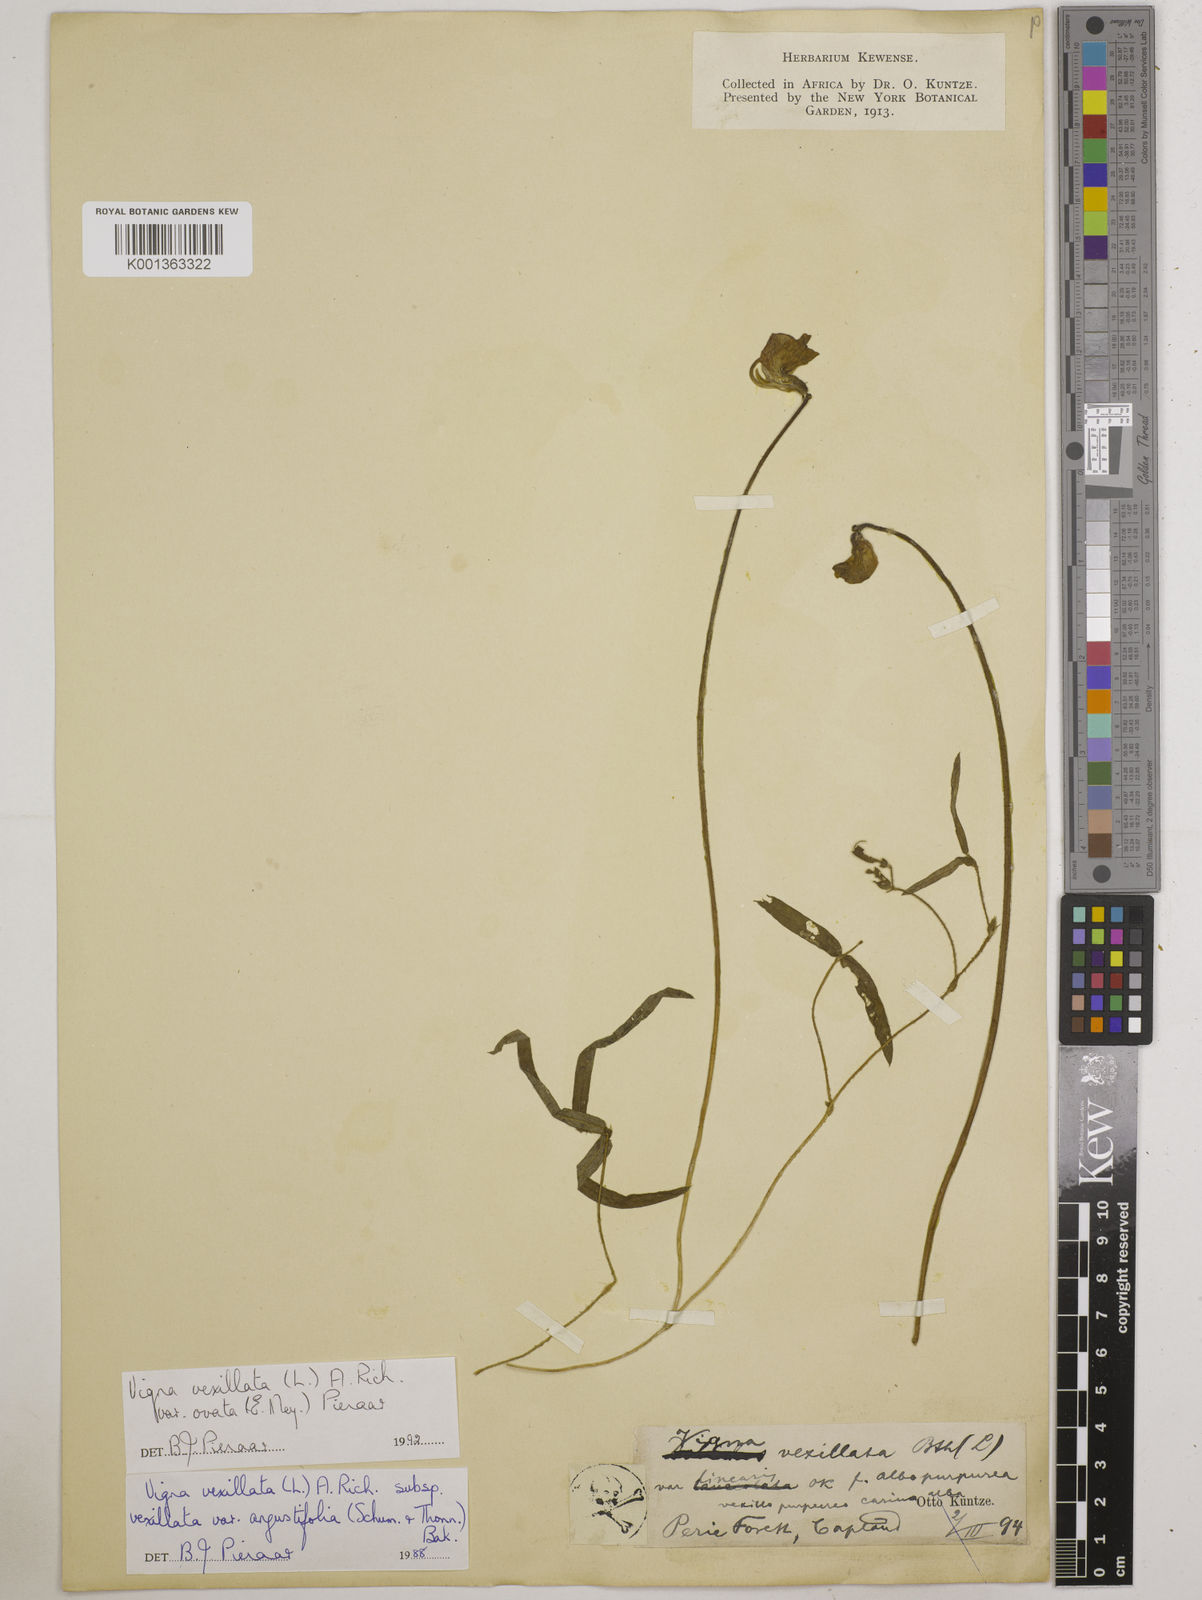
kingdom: Plantae
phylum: Tracheophyta
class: Magnoliopsida
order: Fabales
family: Fabaceae
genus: Vigna
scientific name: Vigna
